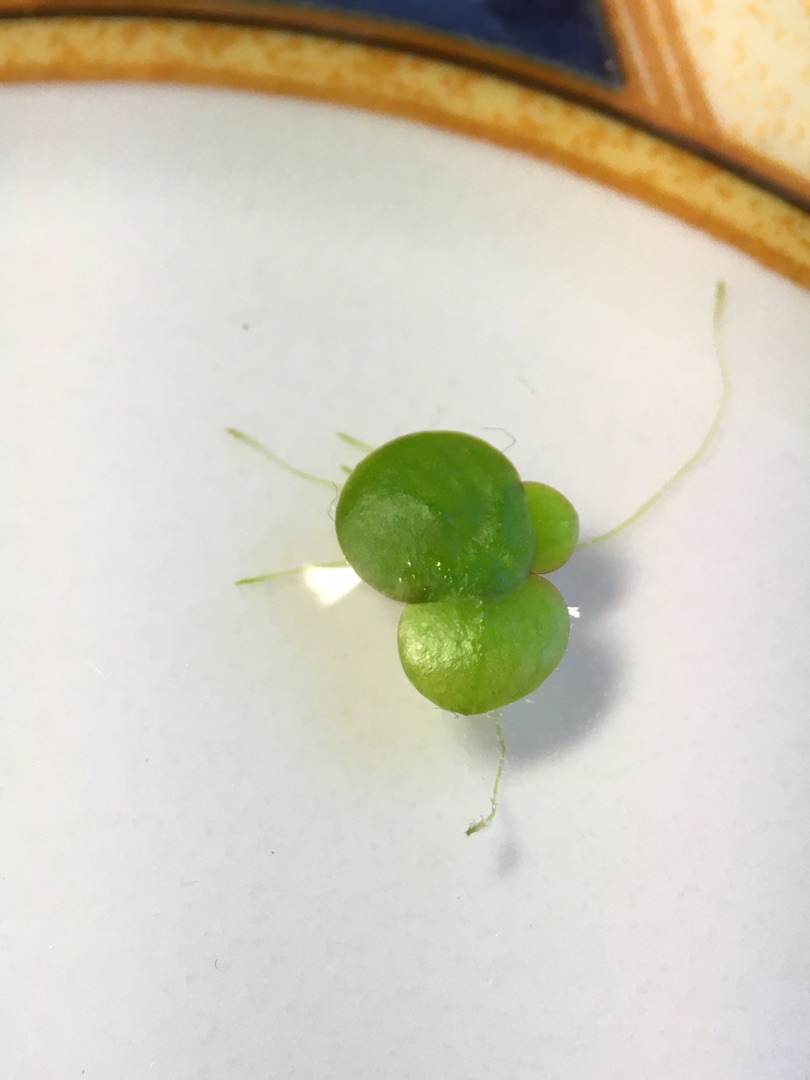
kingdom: Plantae
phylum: Tracheophyta
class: Liliopsida
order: Alismatales
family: Araceae
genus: Spirodela
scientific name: Spirodela polyrhiza
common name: Stor andemad
